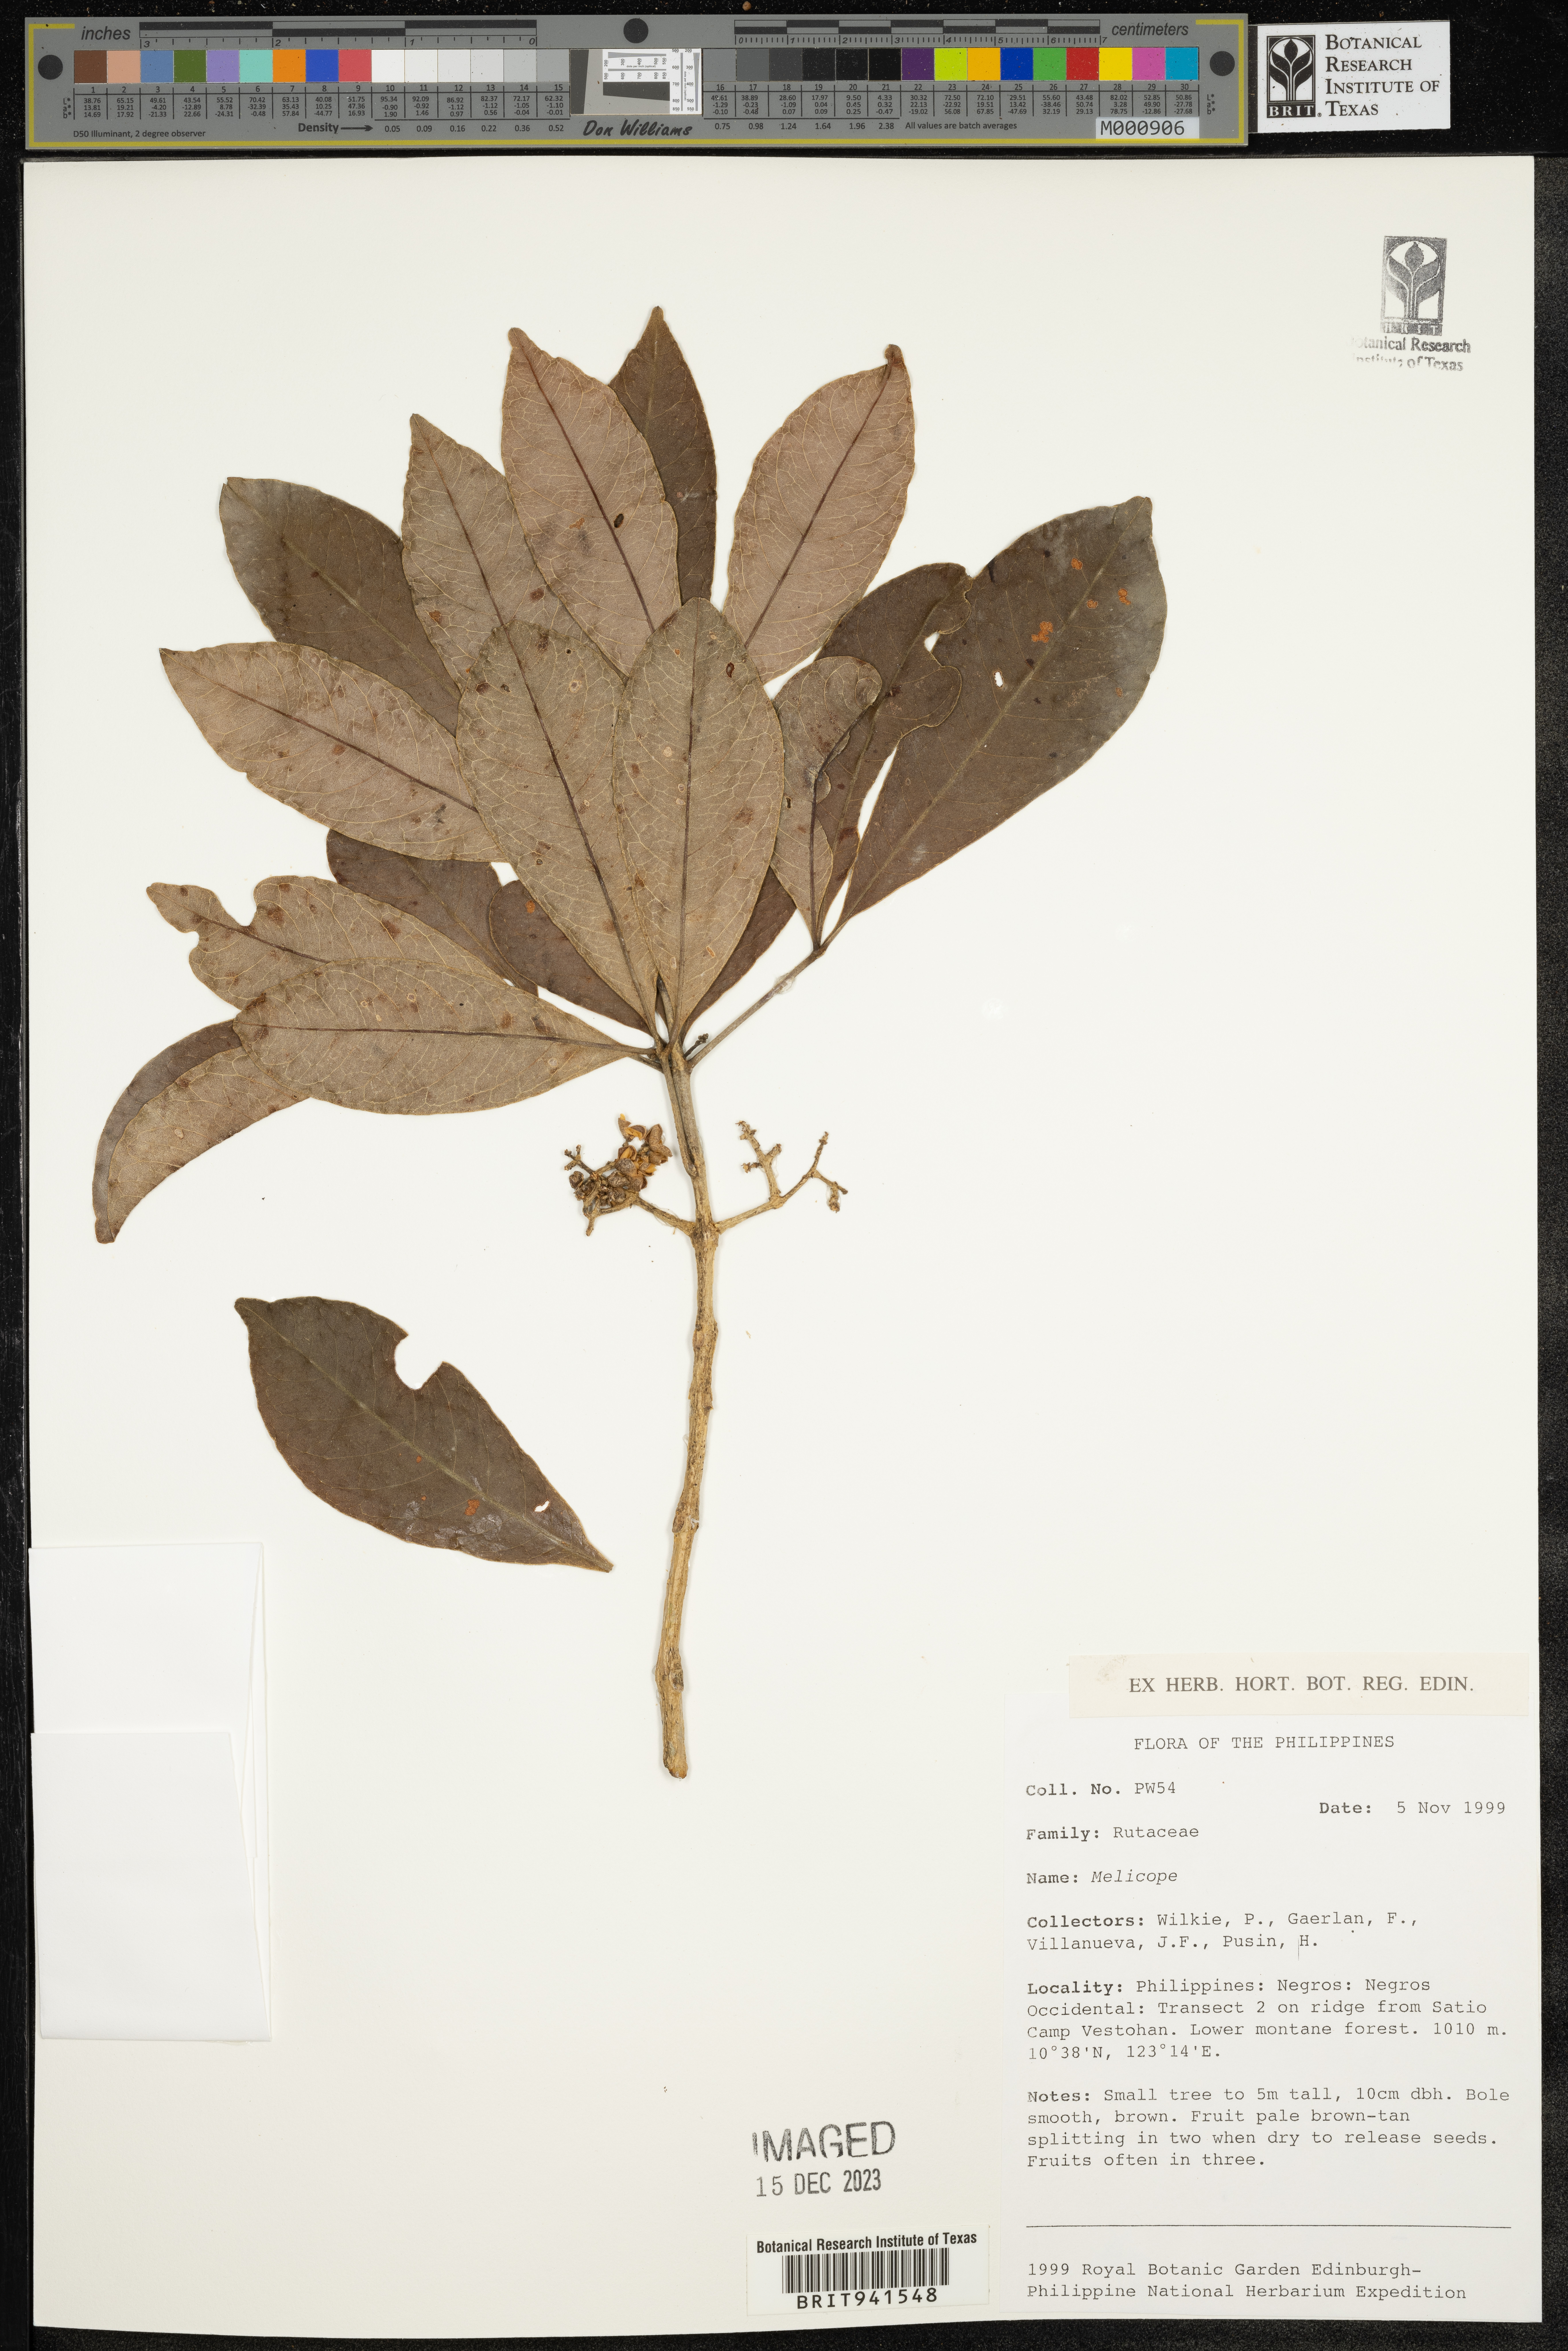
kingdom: Plantae
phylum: Tracheophyta
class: Magnoliopsida
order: Sapindales
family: Rutaceae
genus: Melicope
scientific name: Melicope
